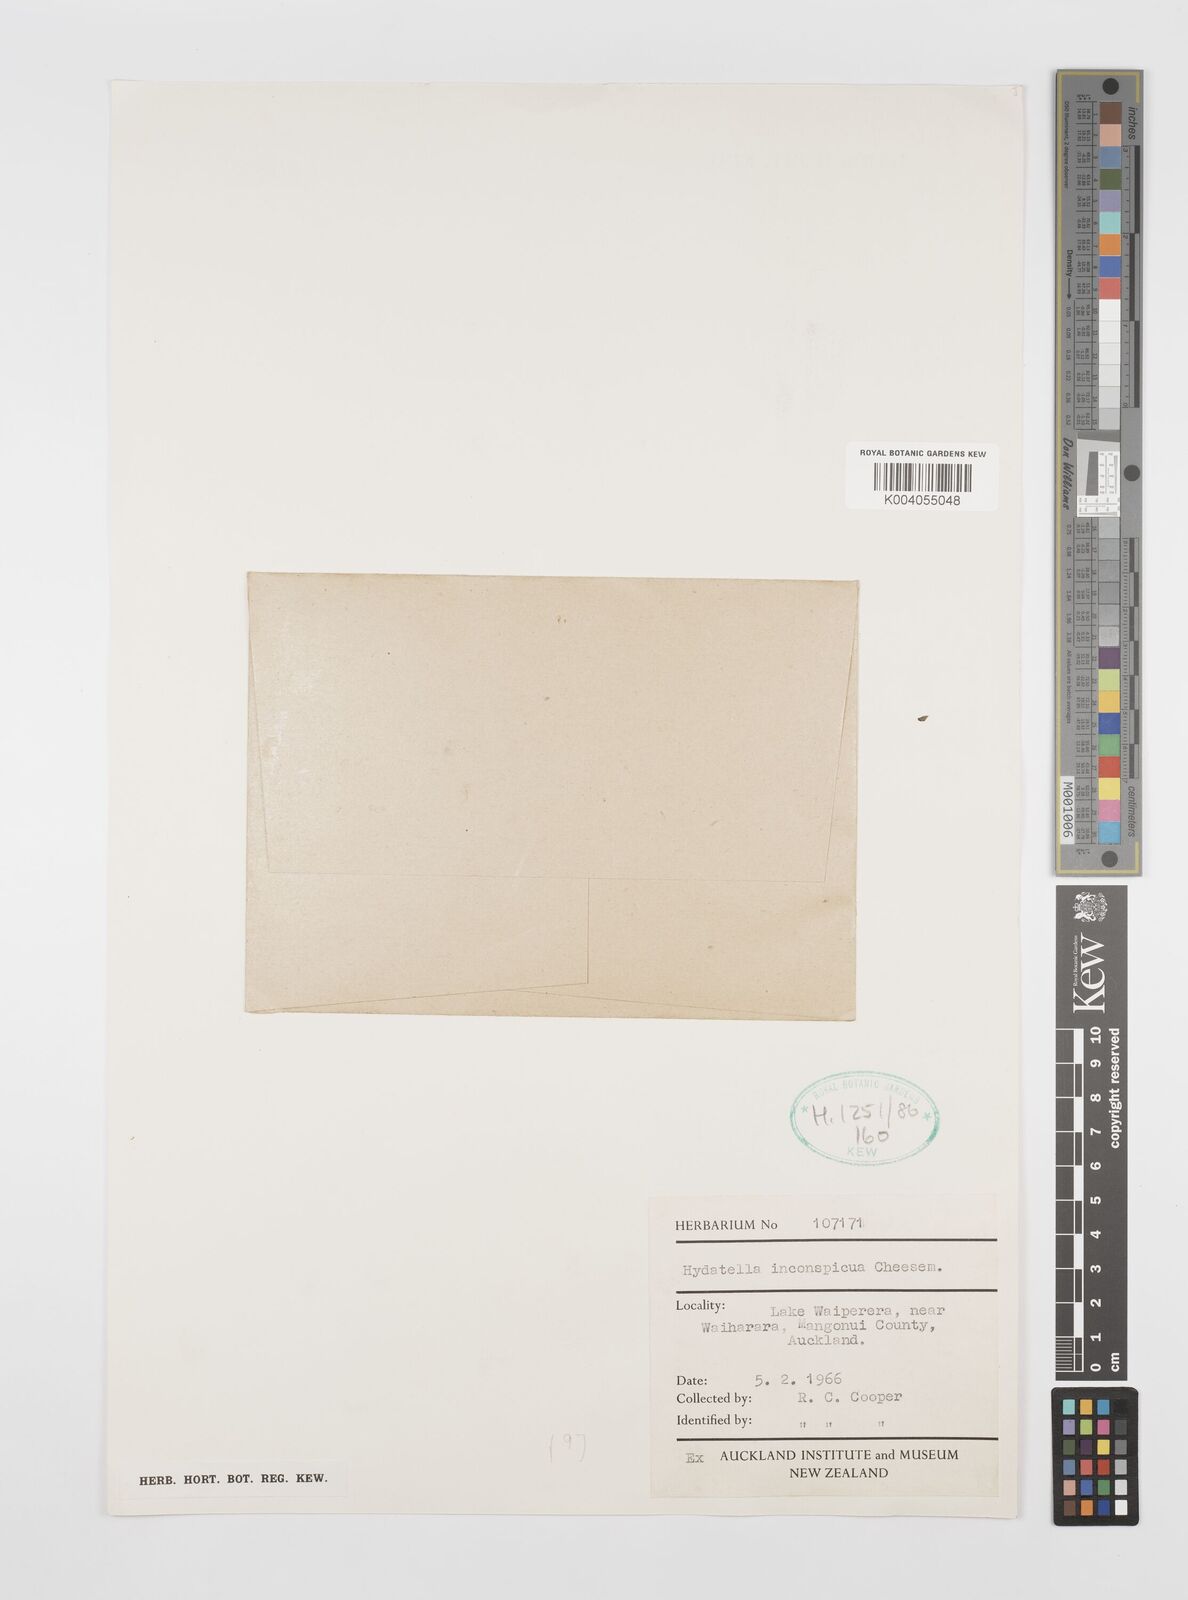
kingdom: Plantae
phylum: Tracheophyta
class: Magnoliopsida
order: Nymphaeales
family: Hydatellaceae
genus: Trithuria
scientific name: Trithuria inconspicua
